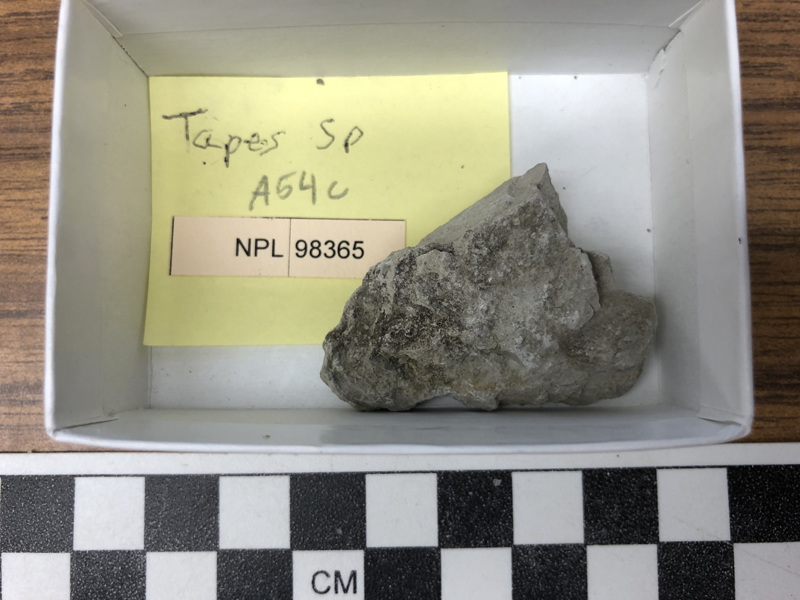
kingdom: Animalia
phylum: Mollusca
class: Bivalvia
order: Venerida
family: Veneridae
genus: Tapes
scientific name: Tapes
